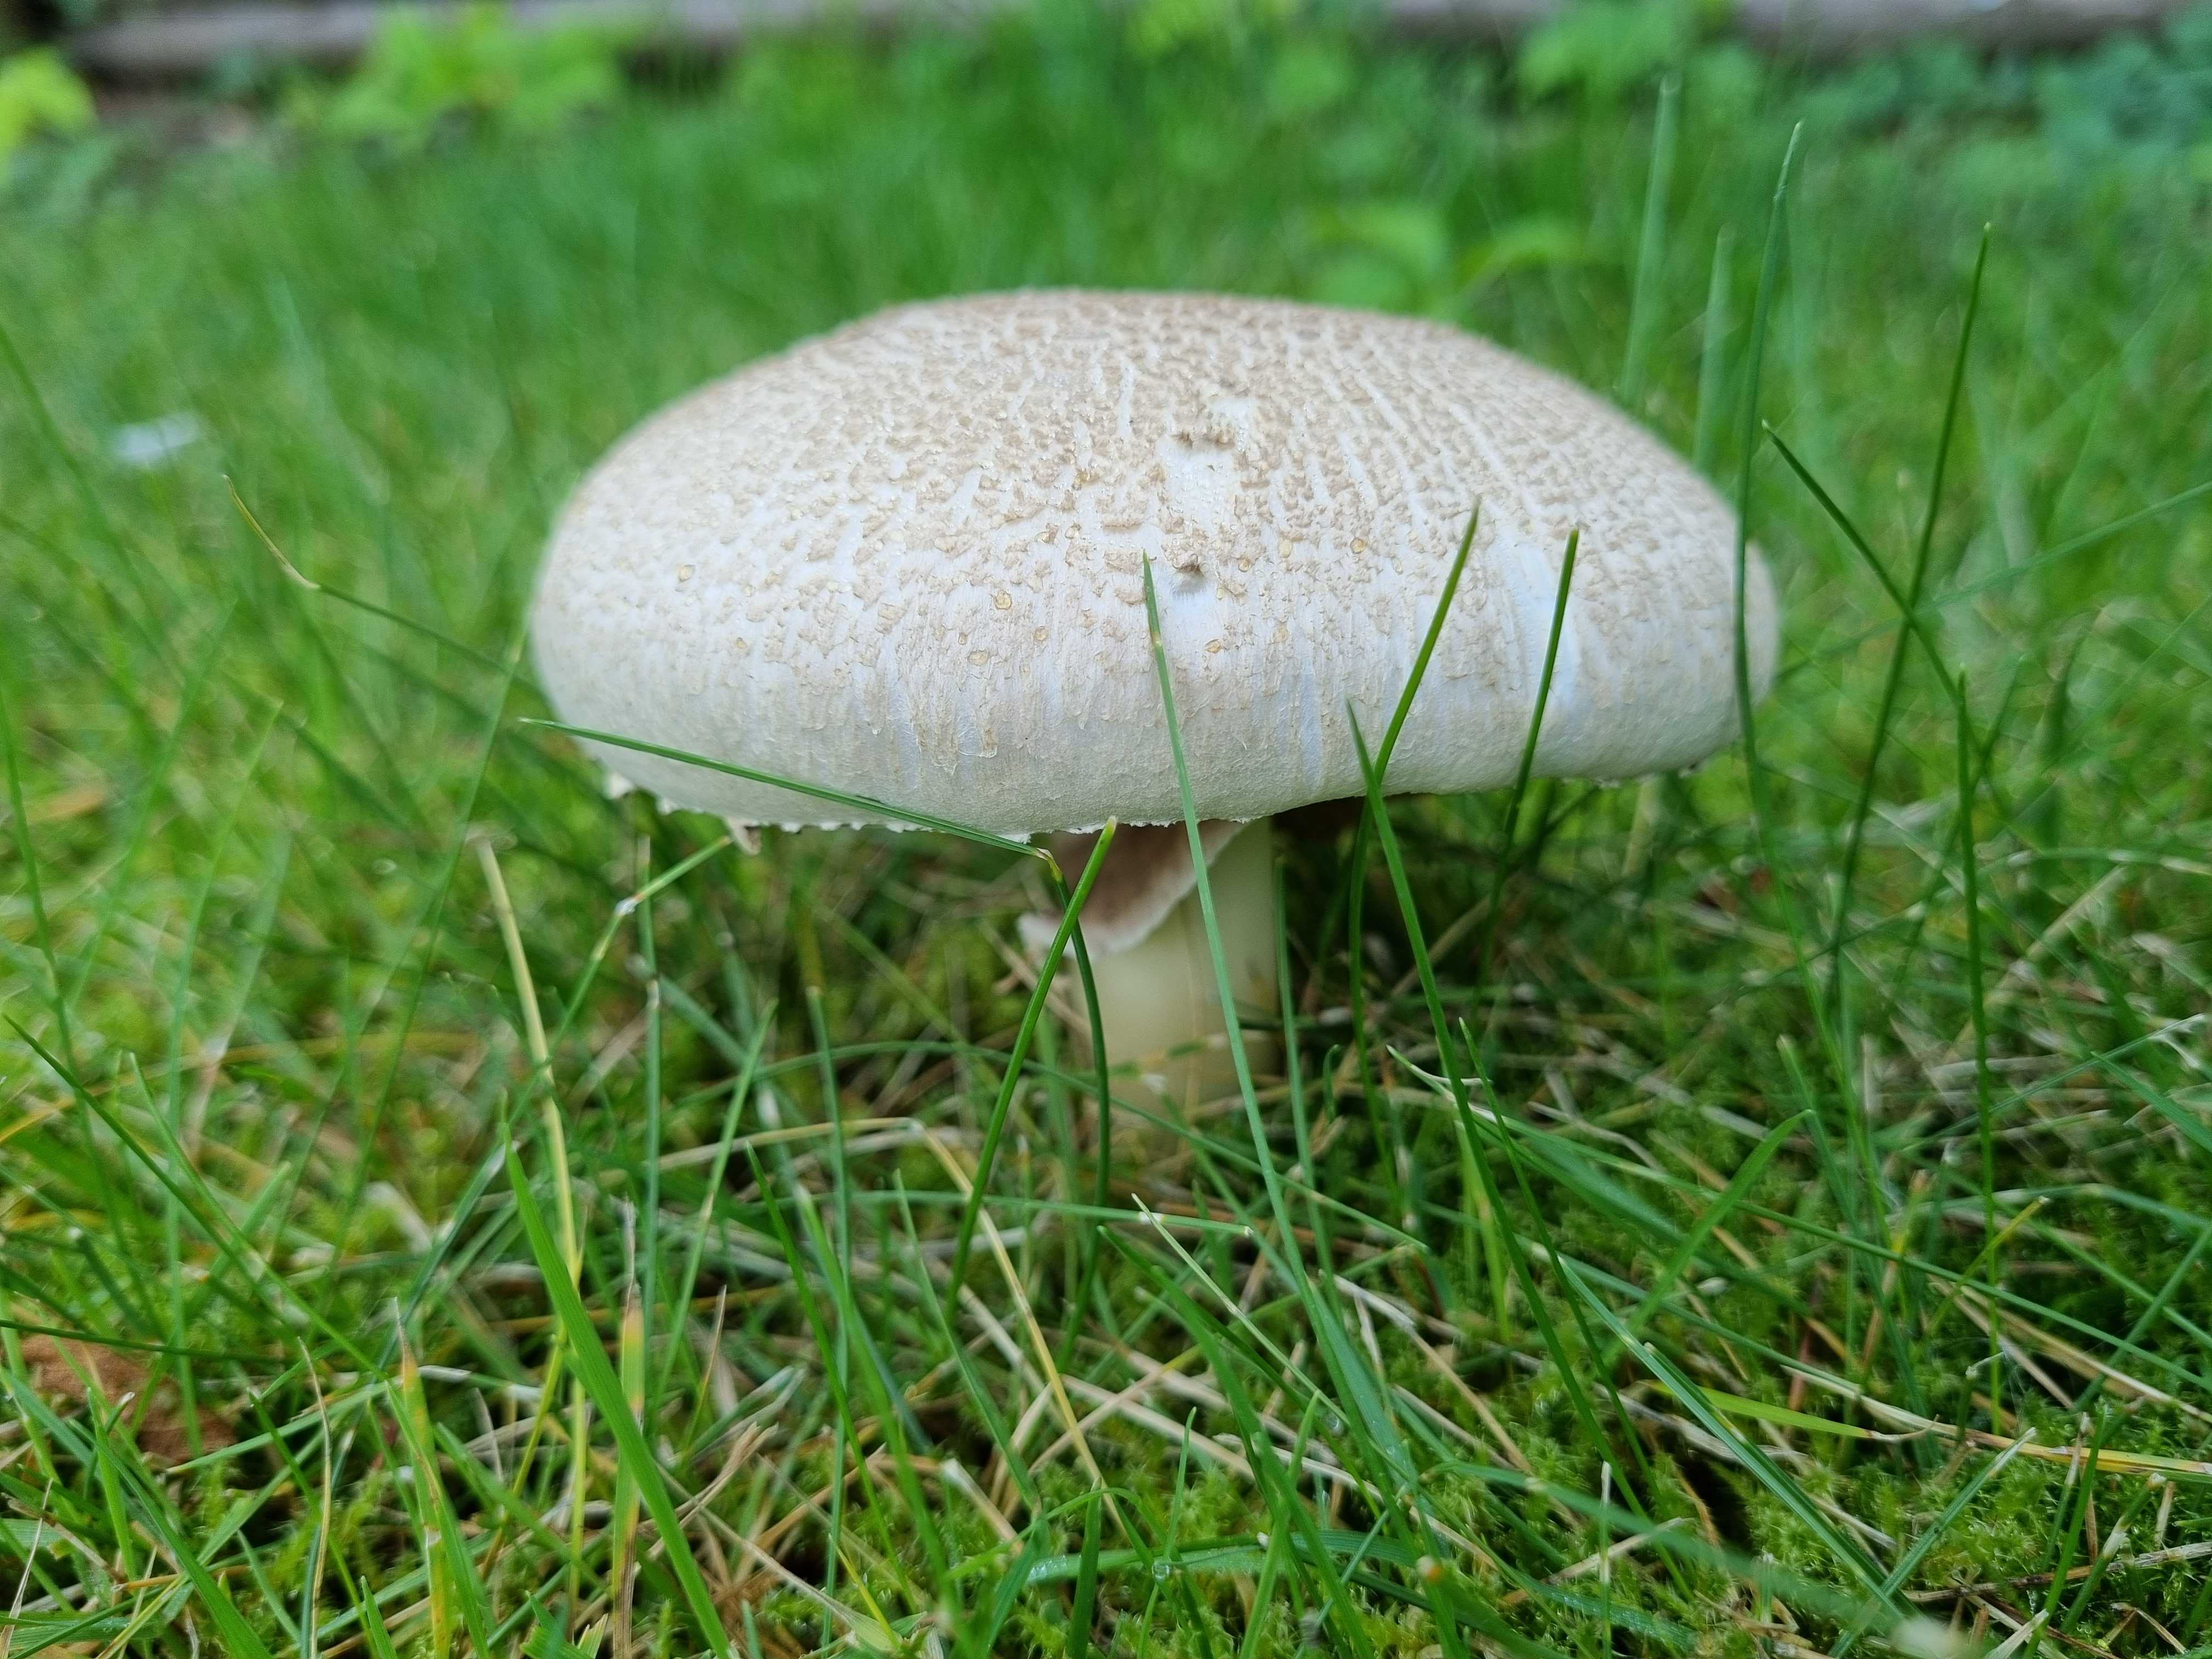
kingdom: Fungi
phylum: Basidiomycota
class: Agaricomycetes
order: Agaricales
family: Agaricaceae
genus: Agaricus
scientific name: Agaricus xanthodermus
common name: karbol-champignon
